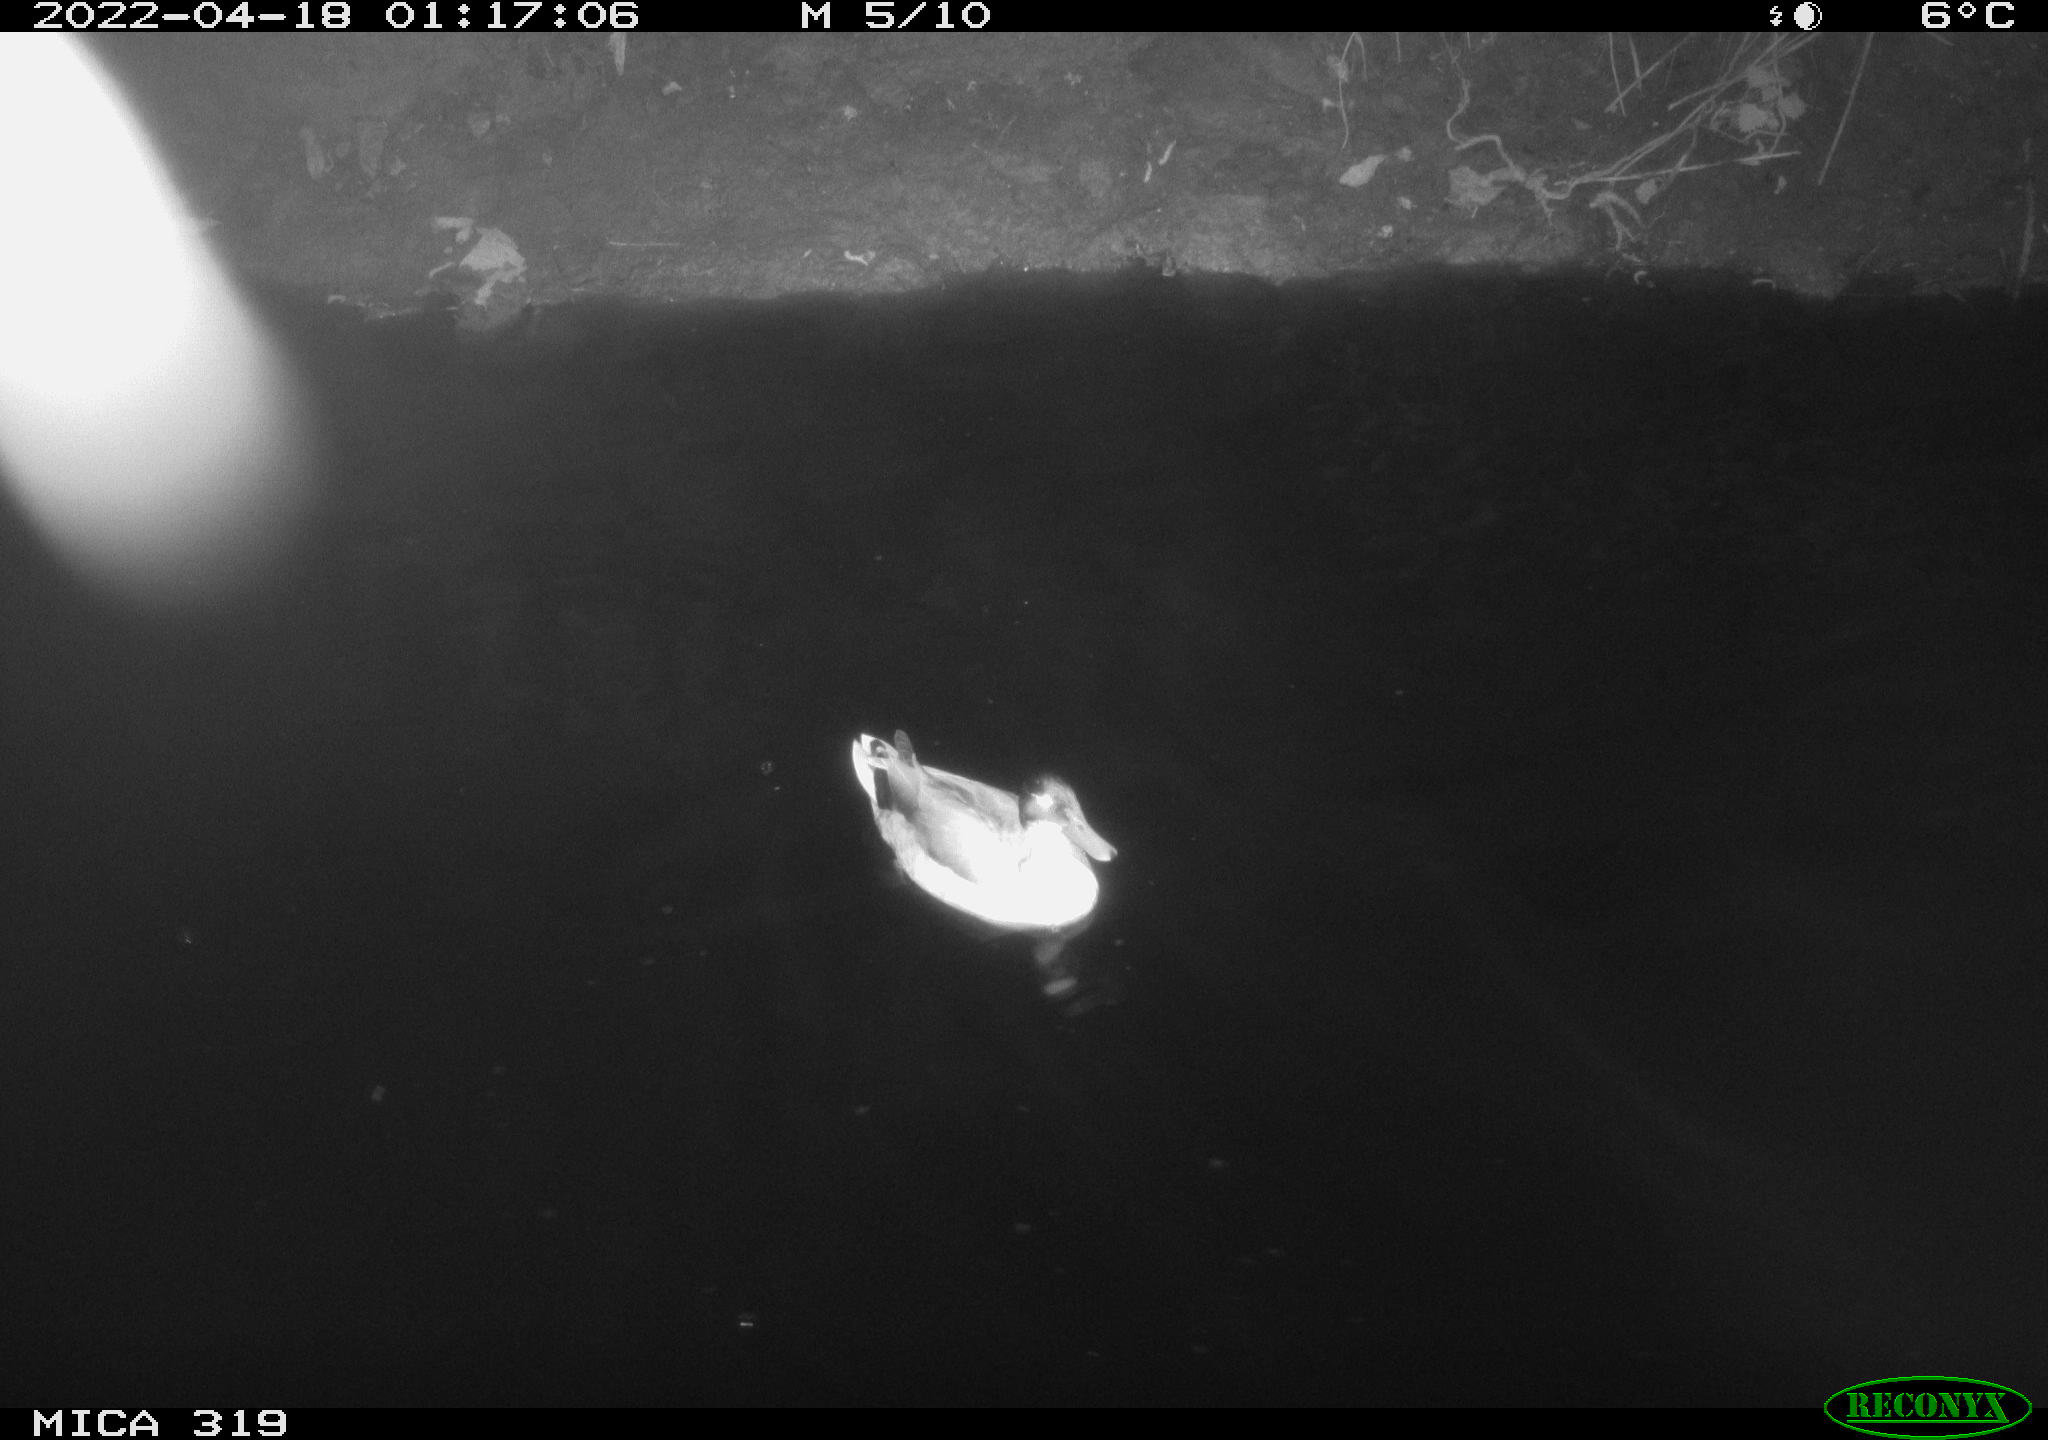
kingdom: Animalia
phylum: Chordata
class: Aves
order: Anseriformes
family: Anatidae
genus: Anas
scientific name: Anas platyrhynchos
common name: Mallard
